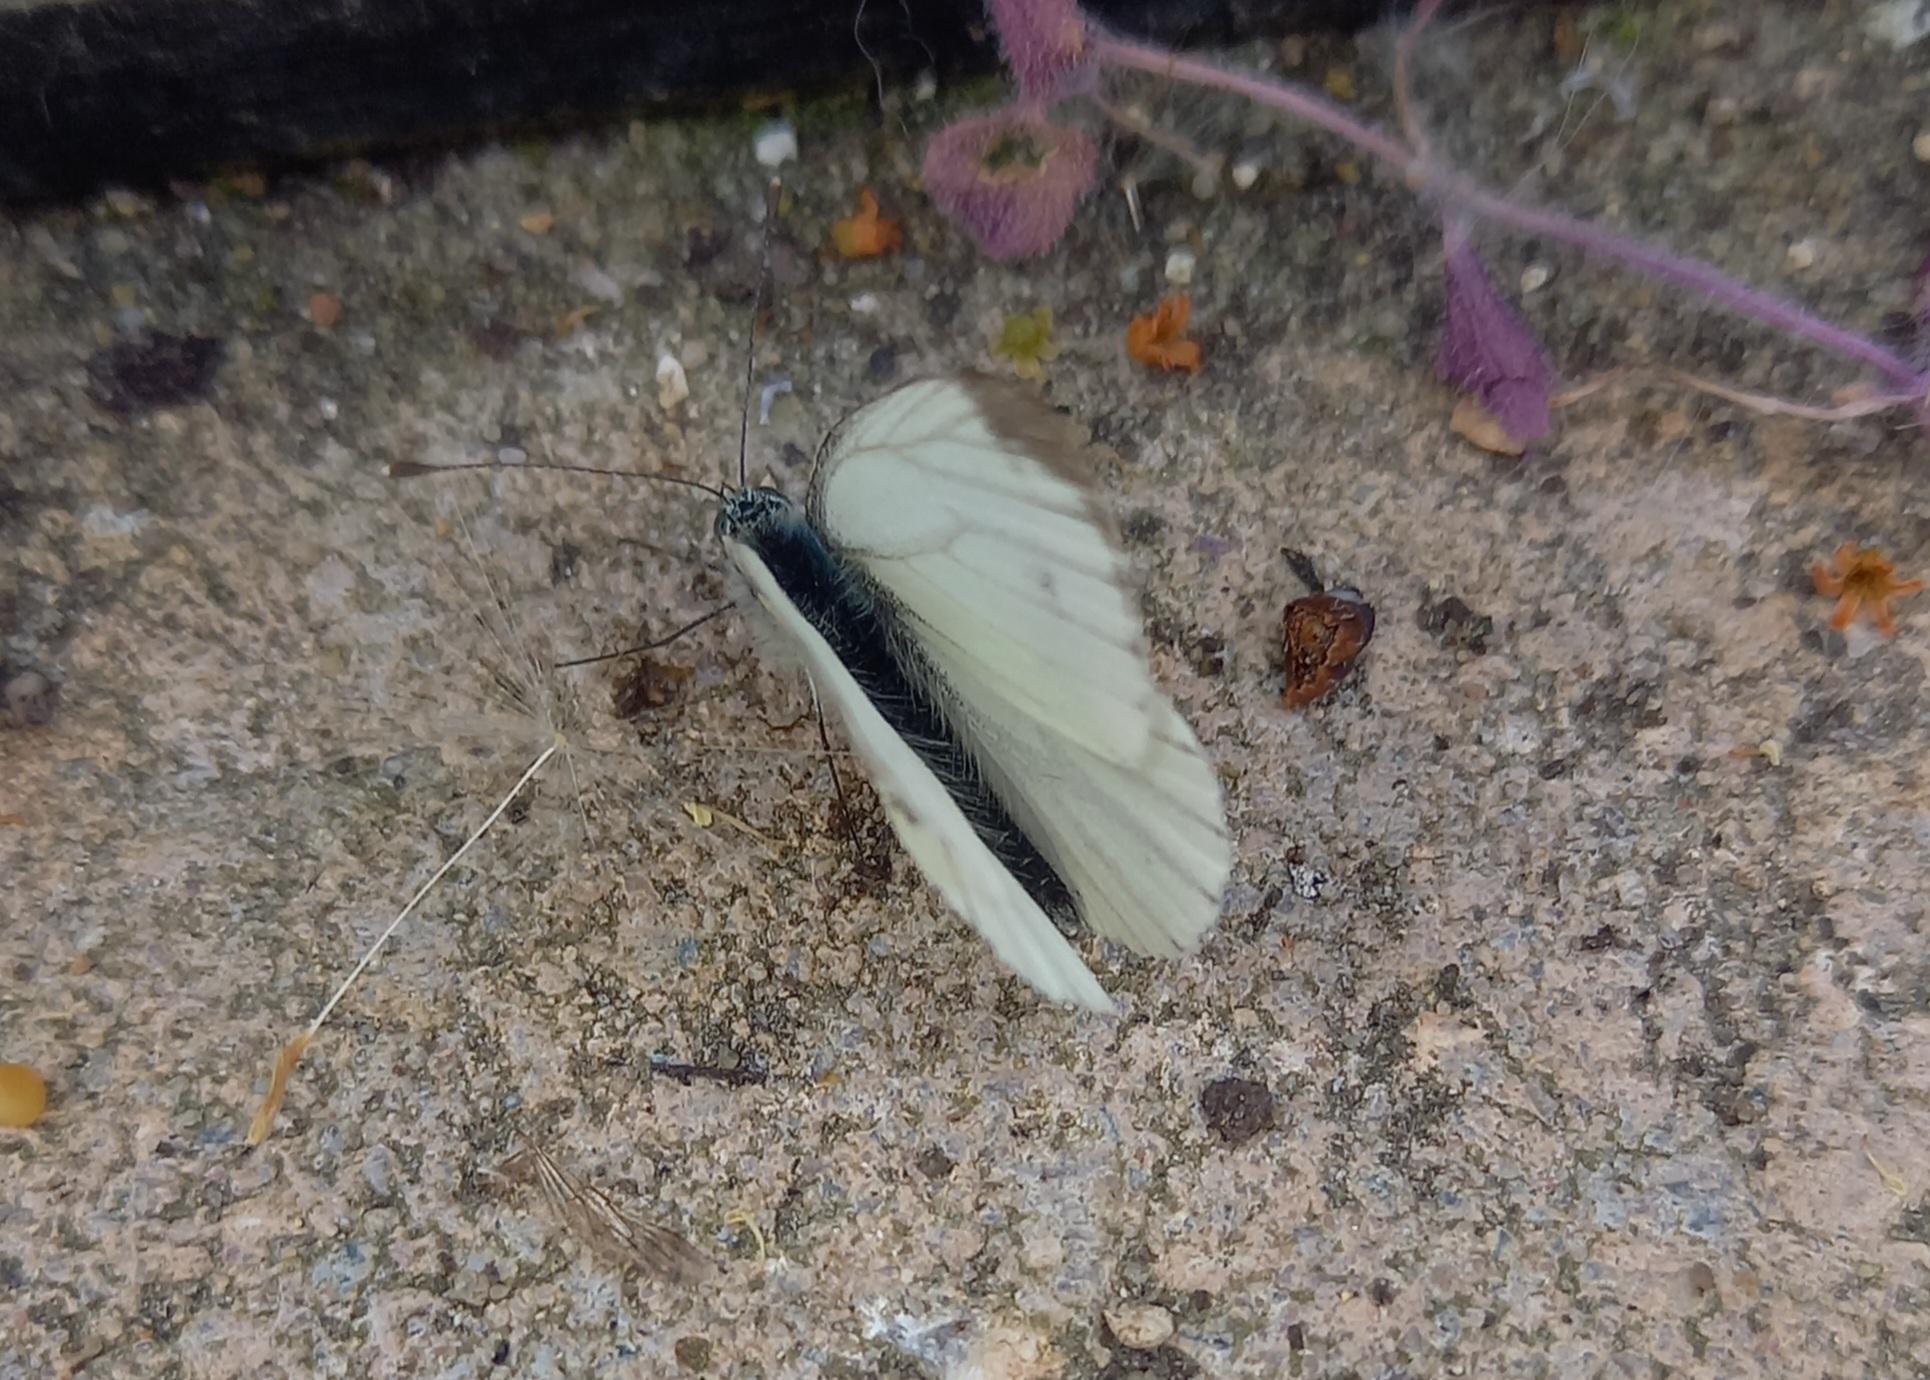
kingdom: Animalia
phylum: Arthropoda
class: Insecta
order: Lepidoptera
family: Pieridae
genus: Pieris
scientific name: Pieris napi
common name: Grønåret kålsommerfugl
